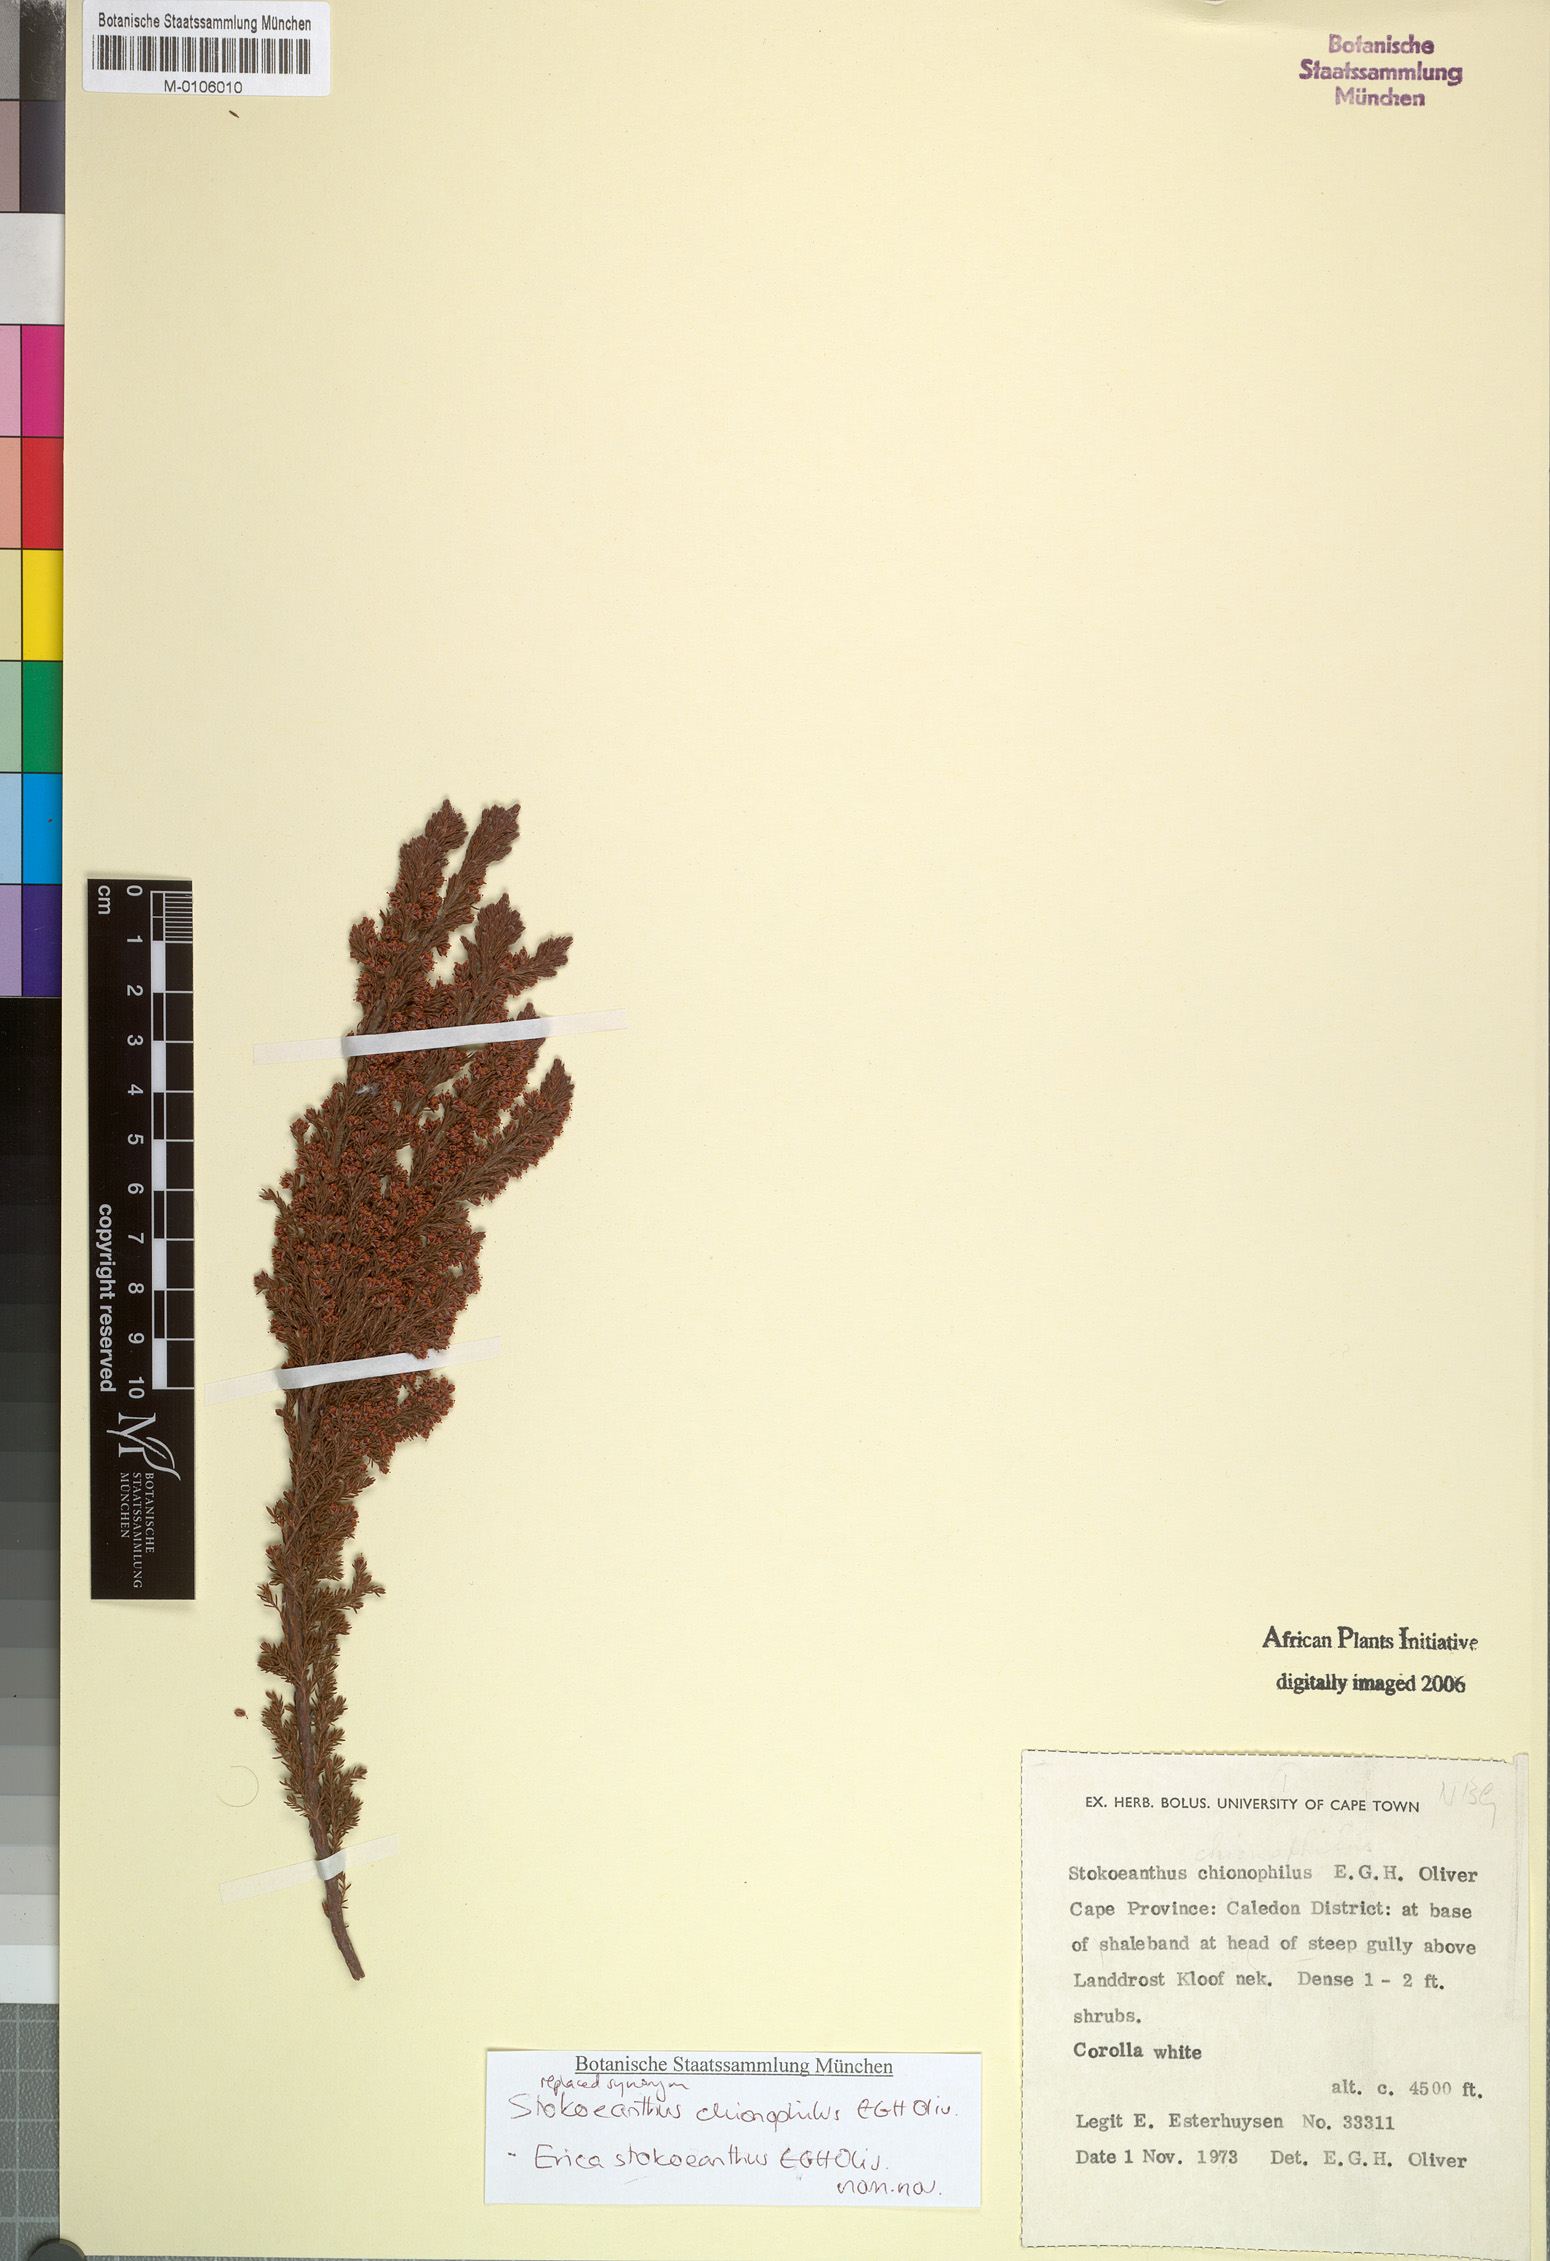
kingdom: Plantae
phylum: Tracheophyta
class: Magnoliopsida
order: Ericales
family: Ericaceae
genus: Erica
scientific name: Erica stokoeanthus
